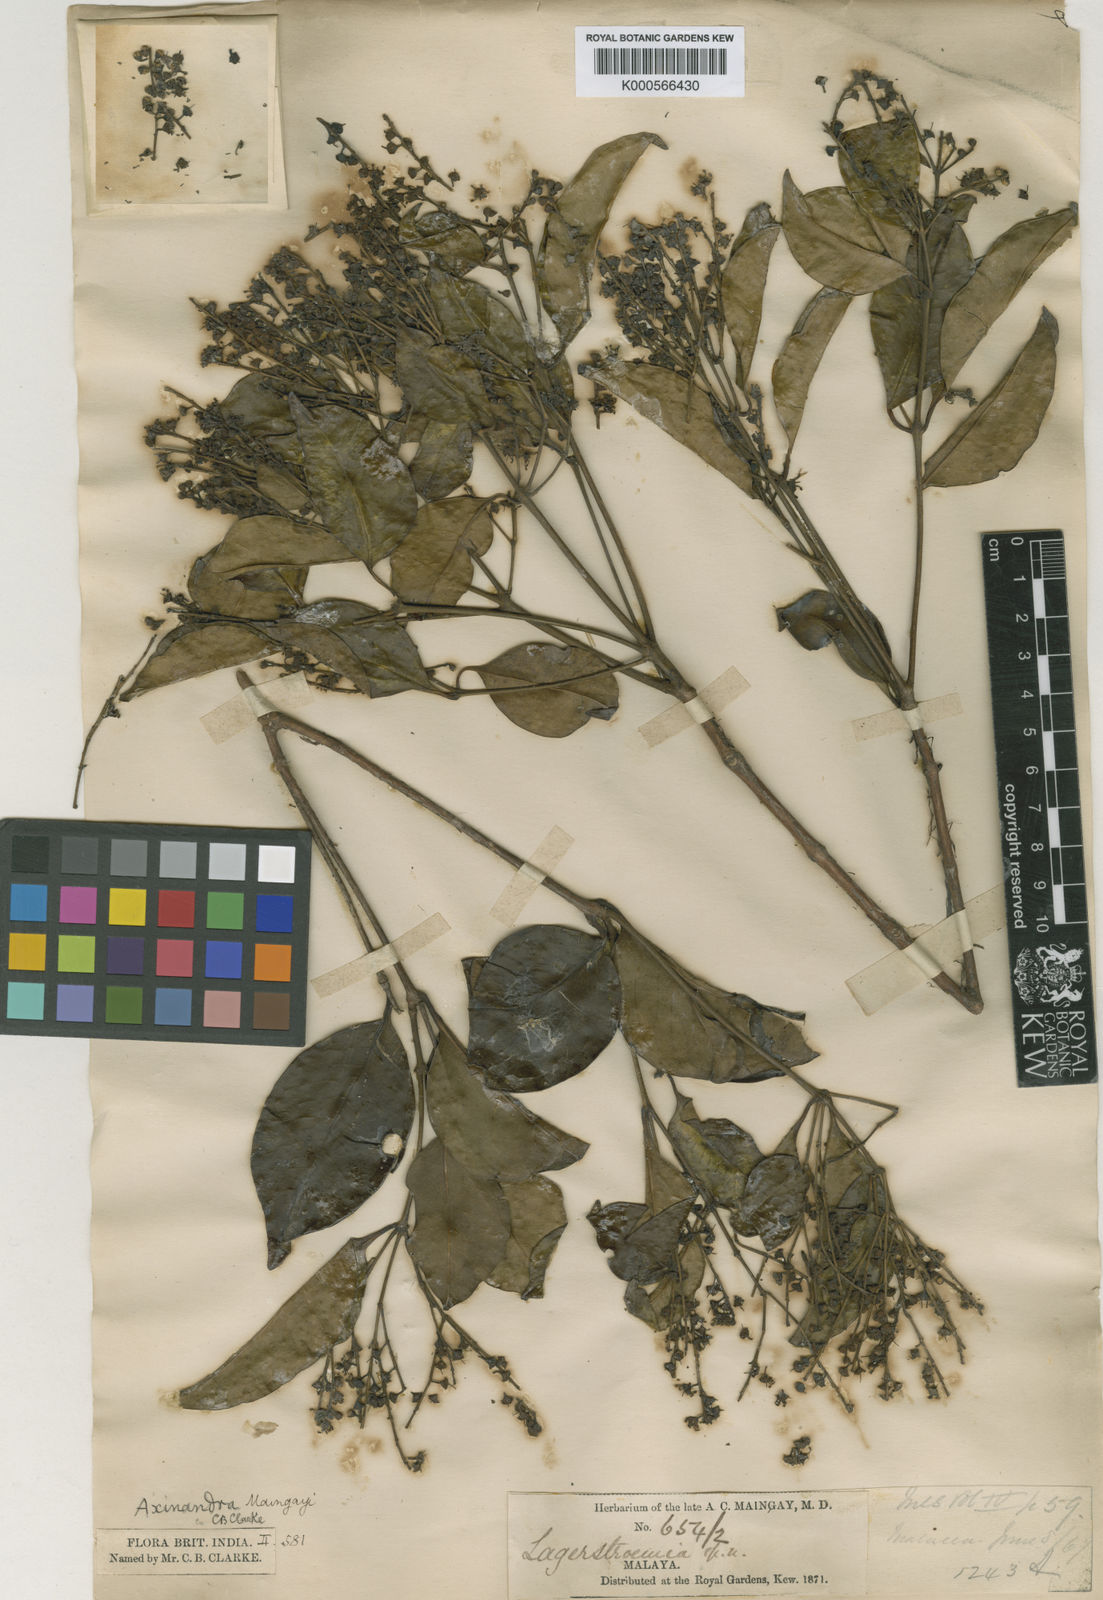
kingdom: Plantae
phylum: Tracheophyta
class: Magnoliopsida
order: Myrtales
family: Crypteroniaceae
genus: Axinandra
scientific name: Axinandra beccariana
